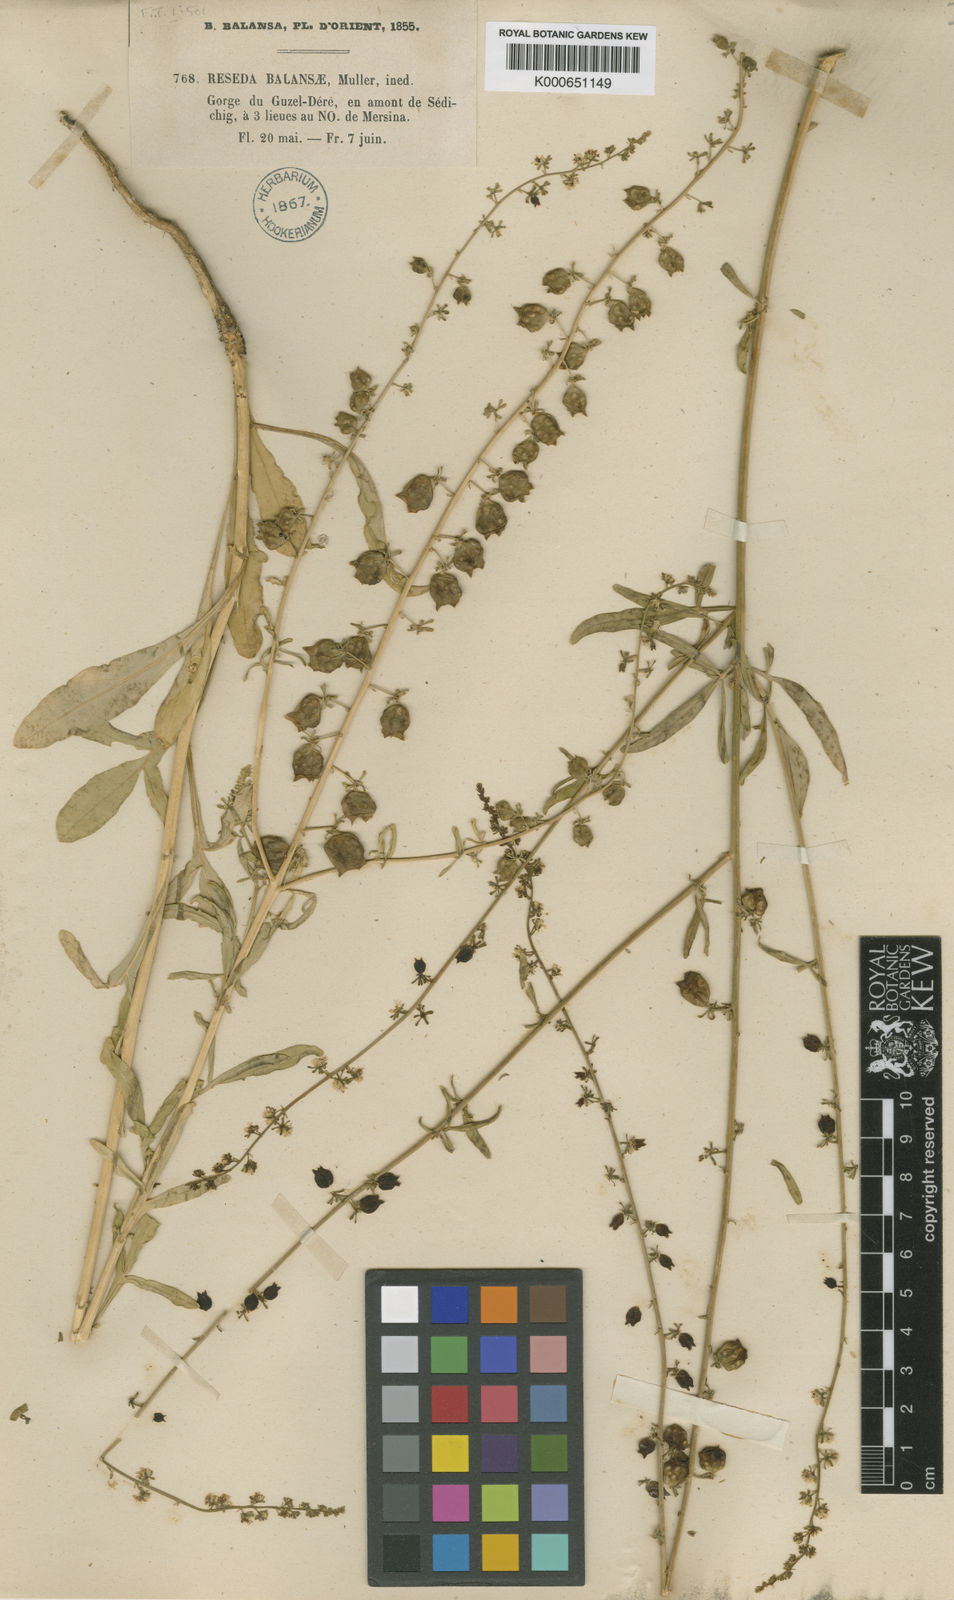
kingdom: Plantae
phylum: Tracheophyta
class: Magnoliopsida
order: Brassicales
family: Resedaceae
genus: Reseda
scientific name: Reseda
